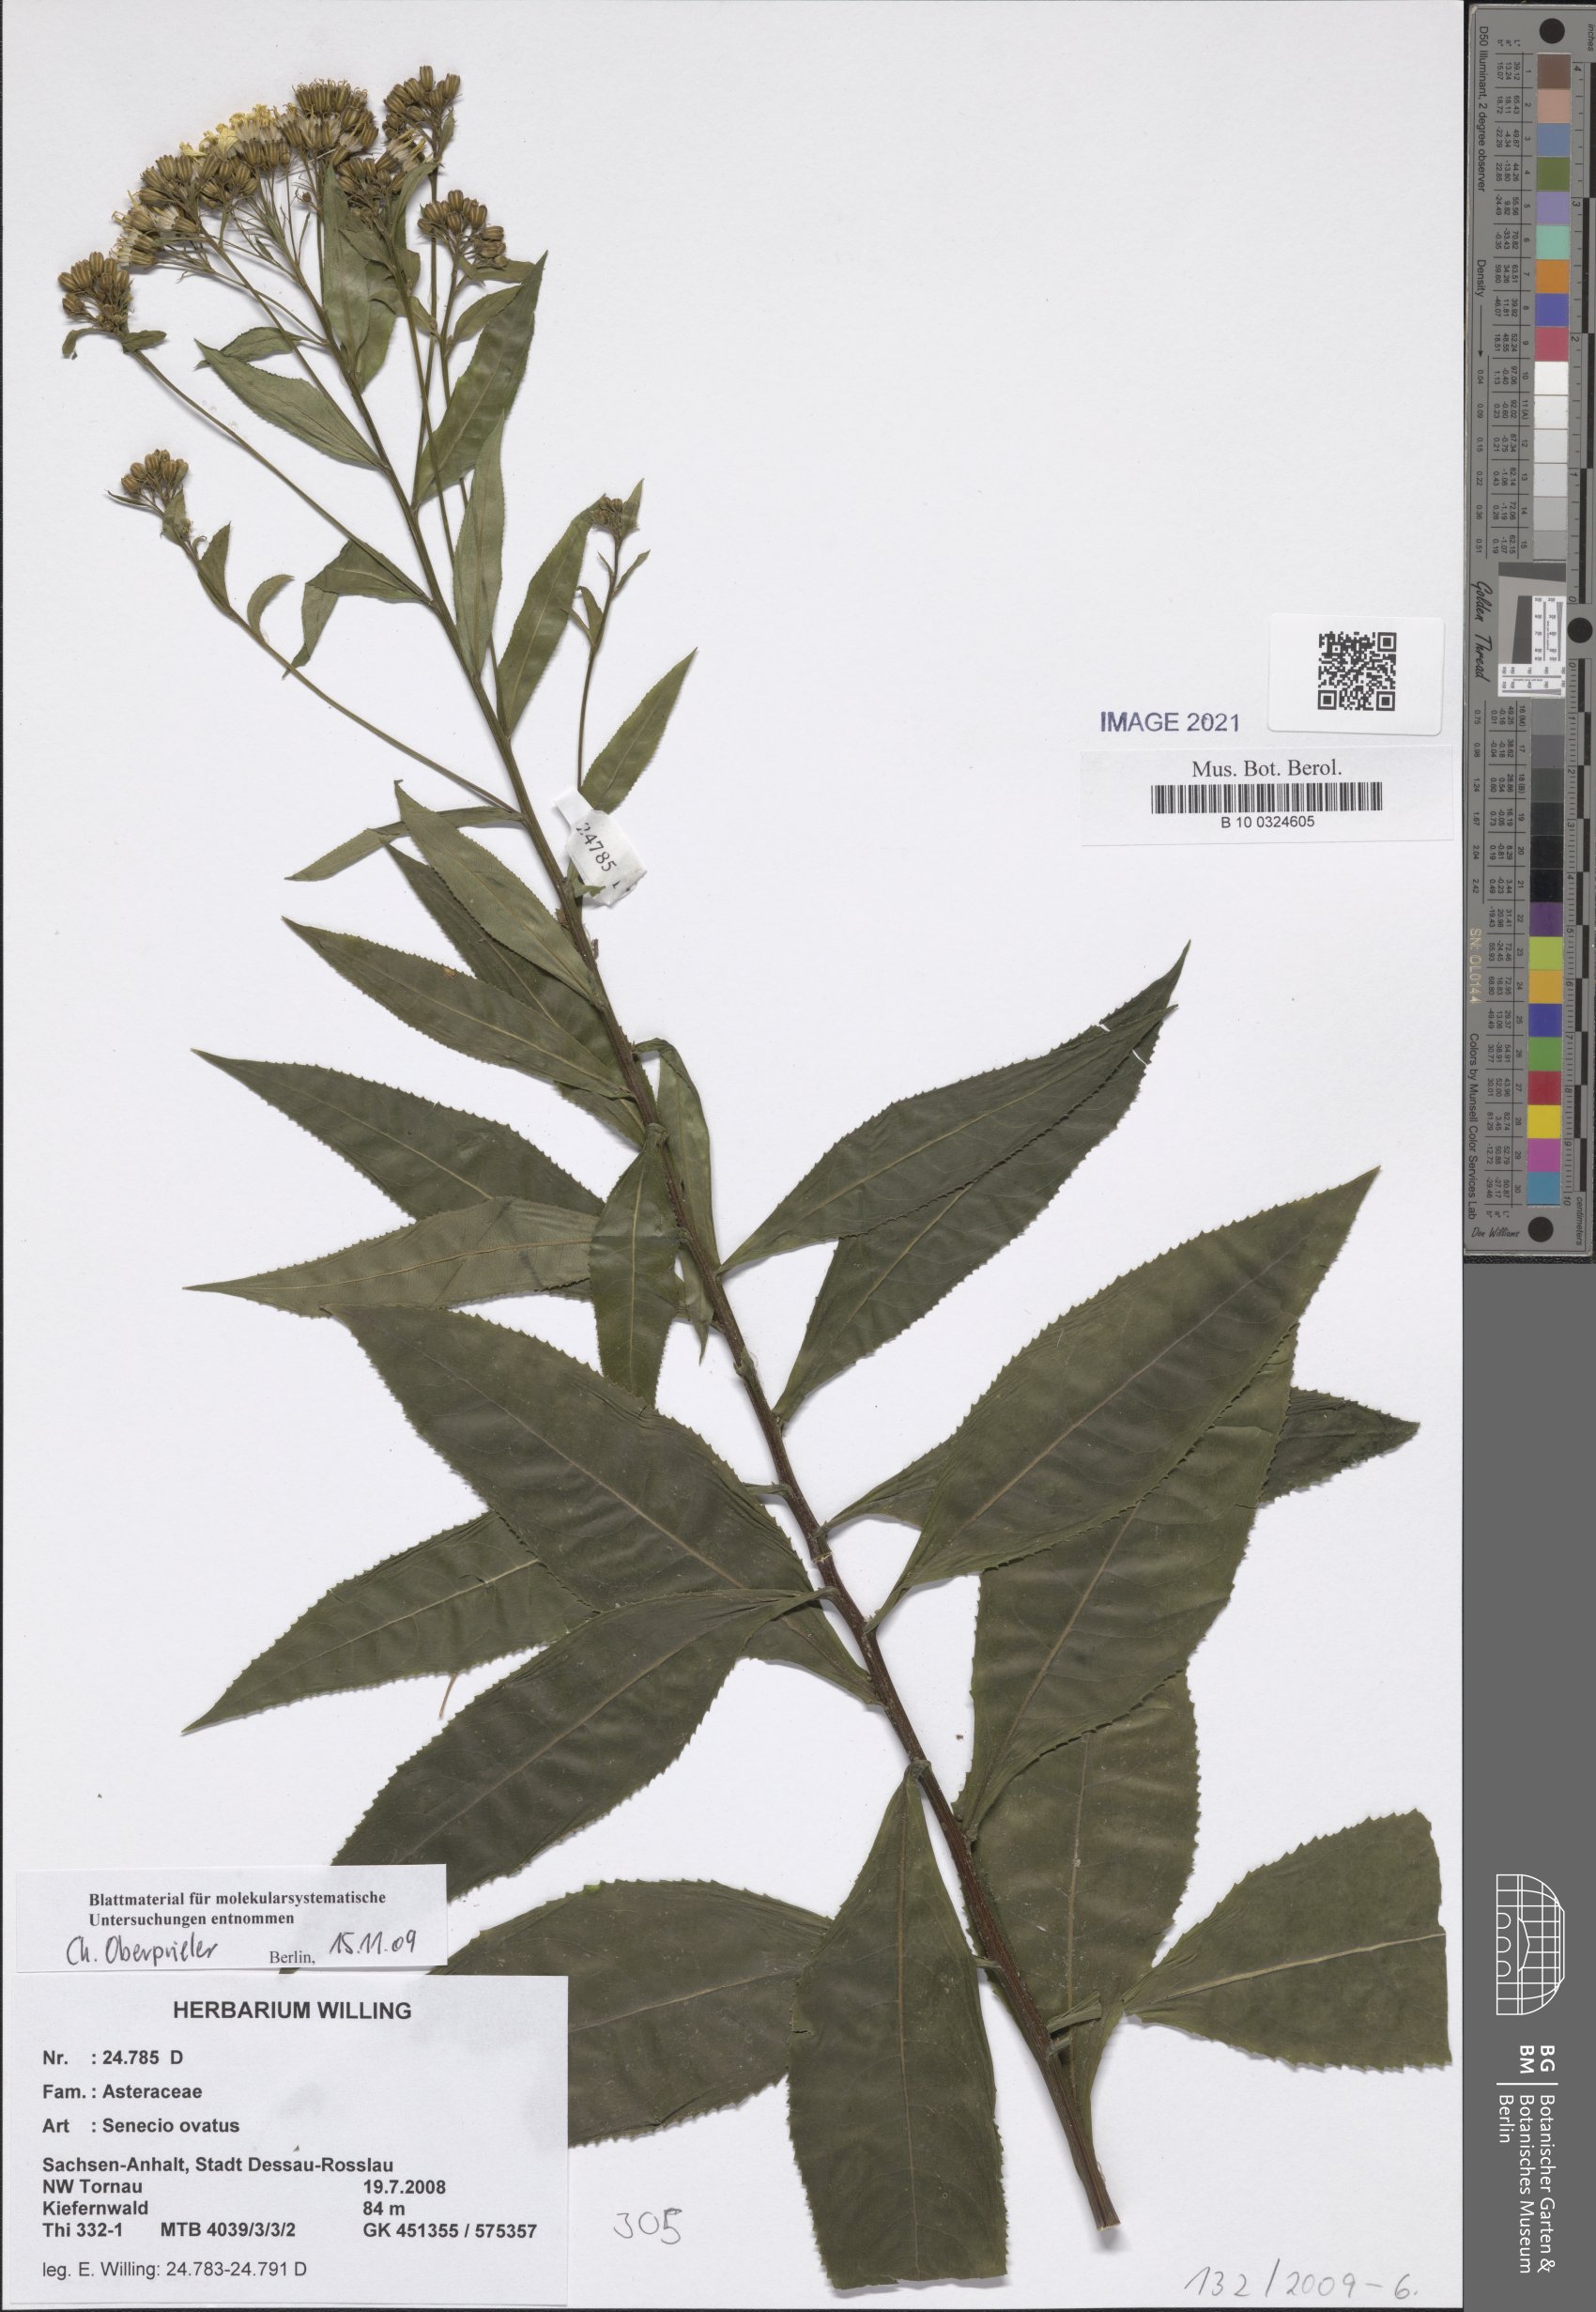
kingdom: Plantae
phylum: Tracheophyta
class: Magnoliopsida
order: Asterales
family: Asteraceae
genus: Senecio
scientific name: Senecio ovatus
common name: Wood ragwort
